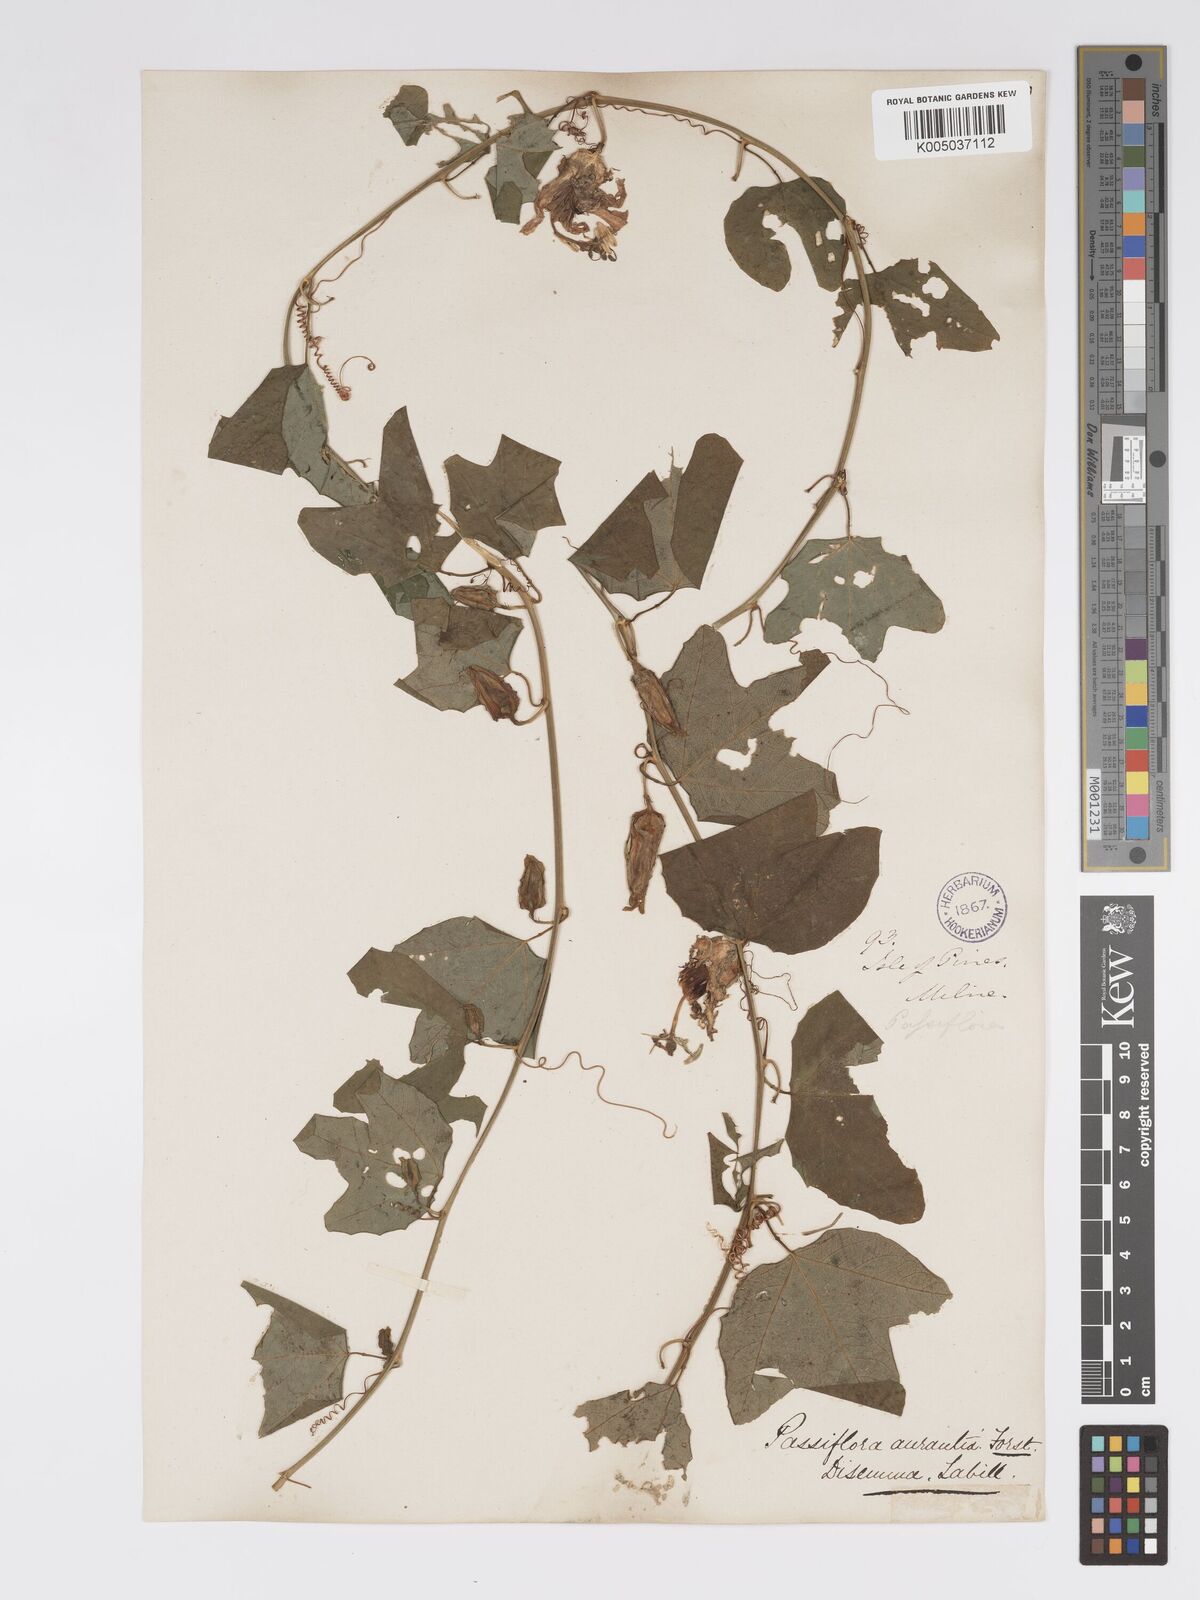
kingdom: Plantae
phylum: Tracheophyta
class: Magnoliopsida
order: Malpighiales
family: Passifloraceae
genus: Passiflora
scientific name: Passiflora aurantia
